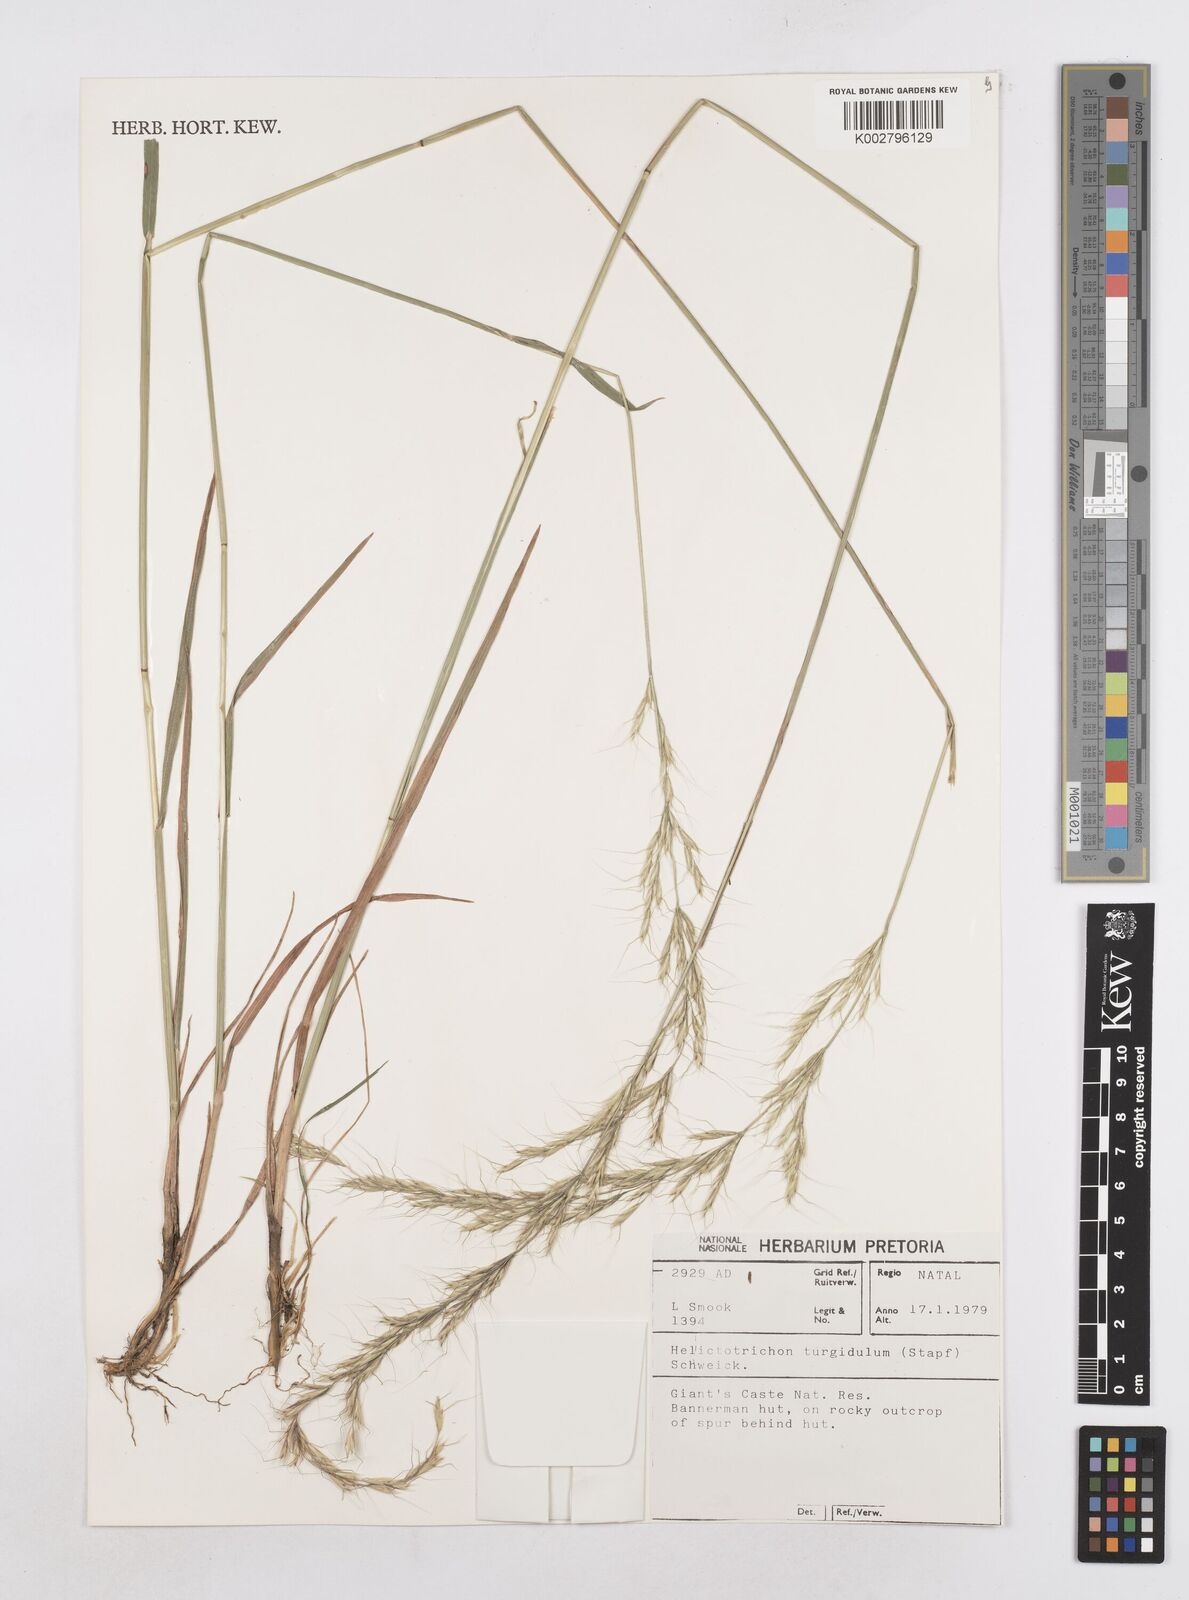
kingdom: Plantae
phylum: Tracheophyta
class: Liliopsida
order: Poales
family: Poaceae
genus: Trisetopsis
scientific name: Trisetopsis imberbis
